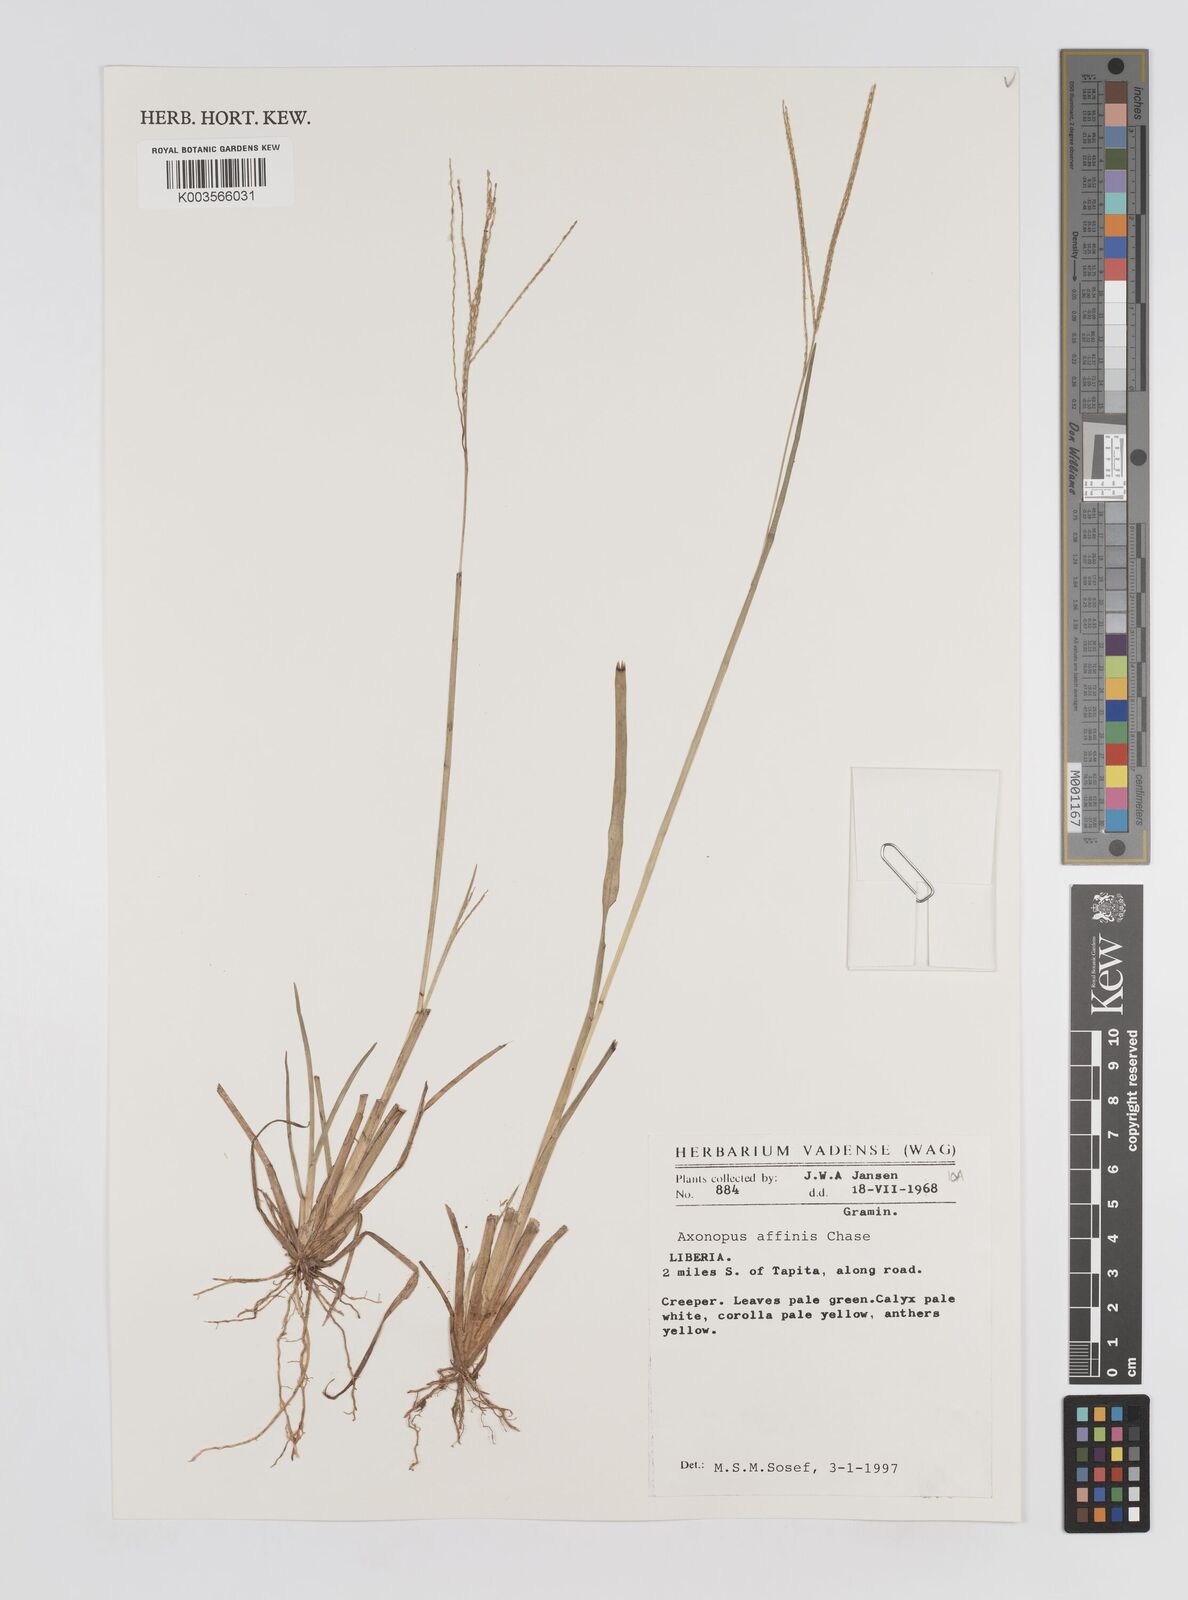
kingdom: Plantae
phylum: Tracheophyta
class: Liliopsida
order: Poales
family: Poaceae
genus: Axonopus
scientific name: Axonopus fissifolius
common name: Common carpetgrass
